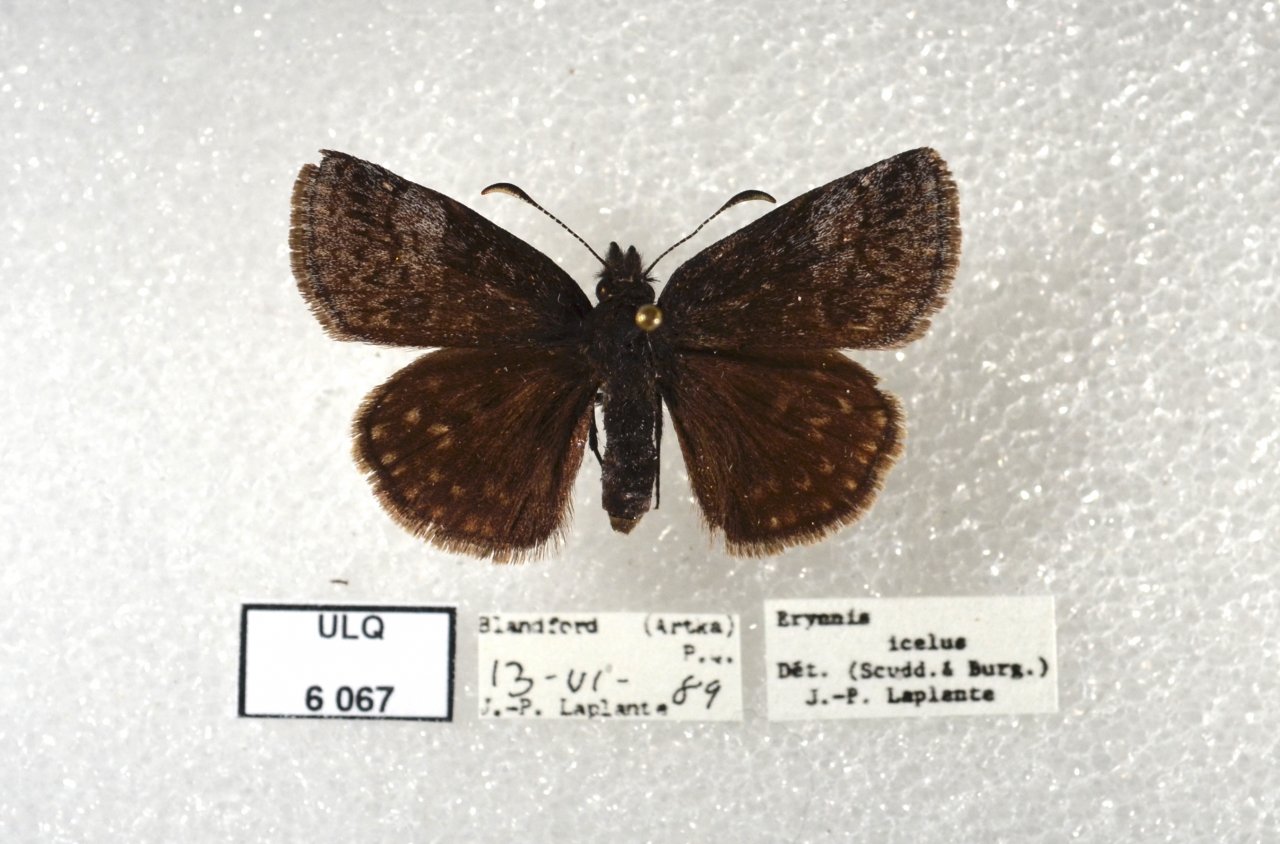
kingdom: Animalia
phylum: Arthropoda
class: Insecta
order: Lepidoptera
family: Hesperiidae
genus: Erynnis
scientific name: Erynnis icelus
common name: Dreamy Duskywing
